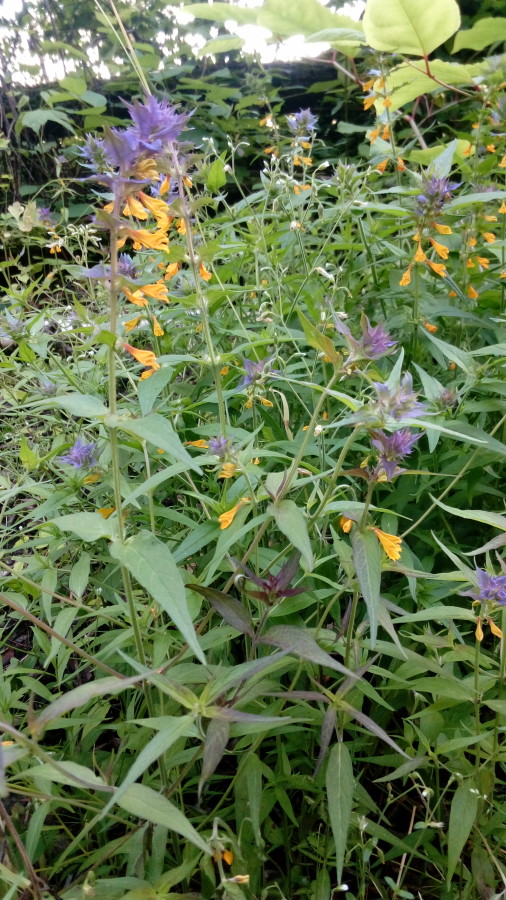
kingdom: Plantae
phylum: Tracheophyta
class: Magnoliopsida
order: Lamiales
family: Orobanchaceae
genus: Melampyrum
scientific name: Melampyrum nemorosum
